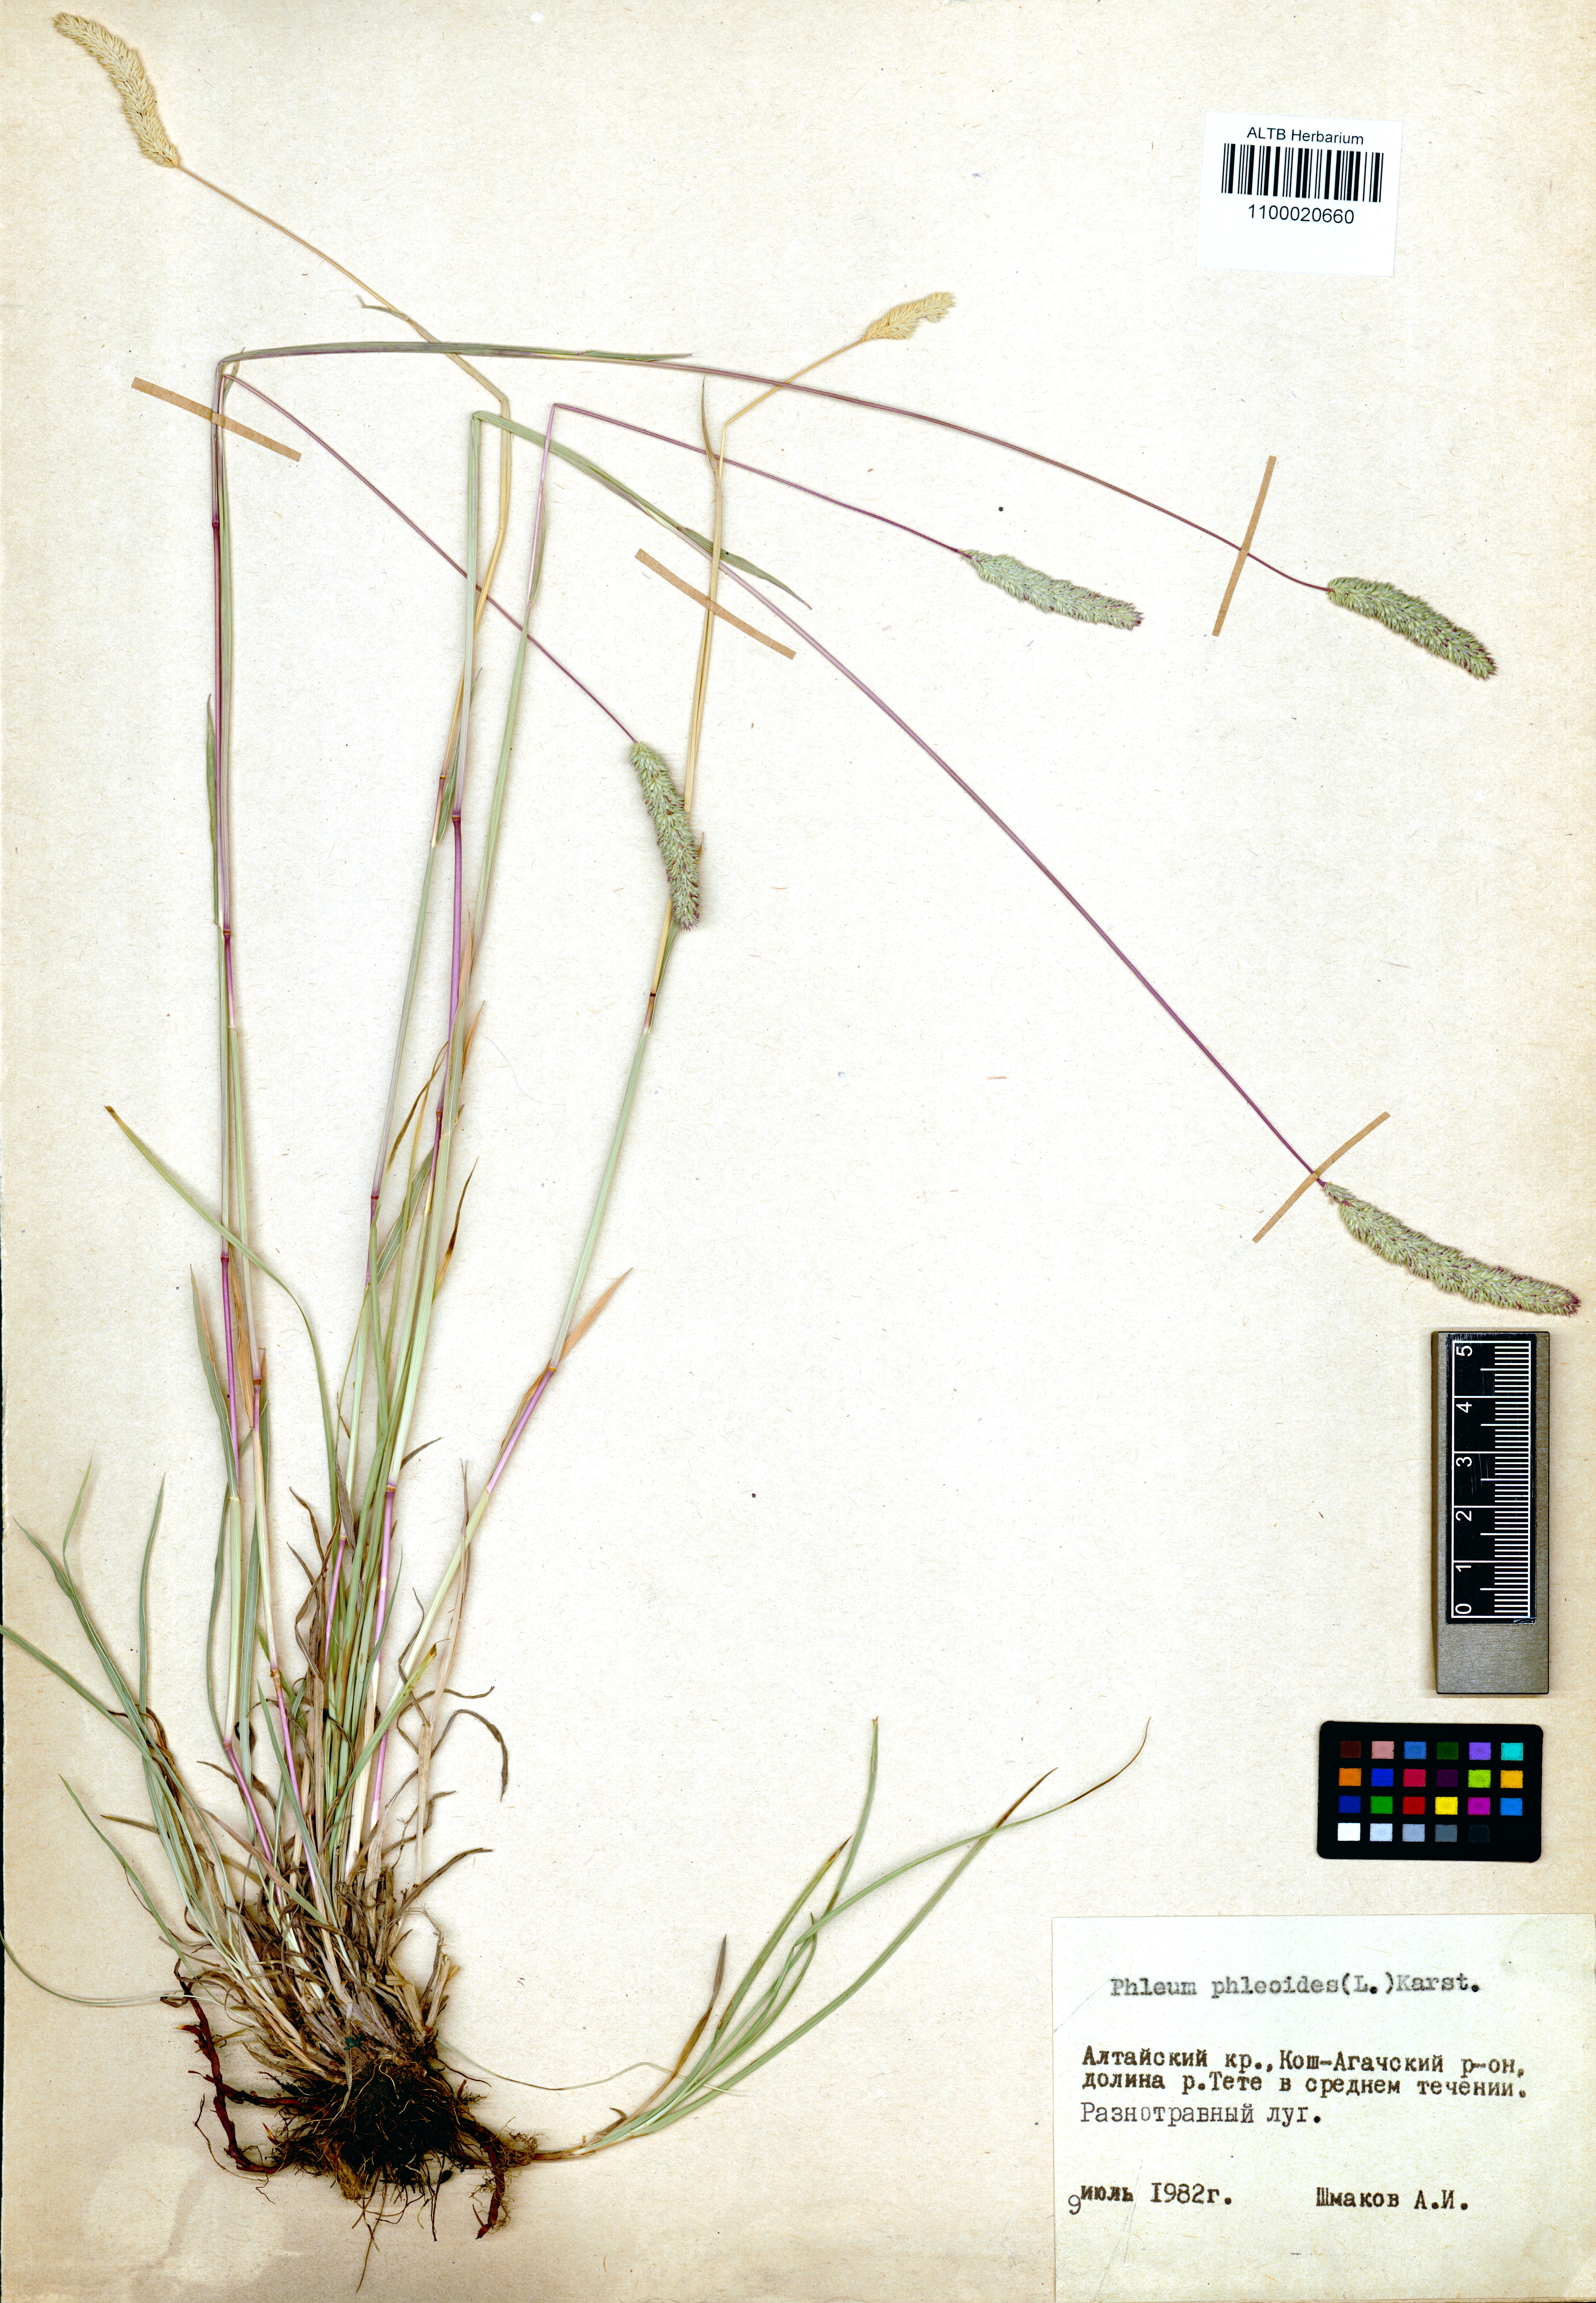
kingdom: Plantae
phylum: Tracheophyta
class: Liliopsida
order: Poales
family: Poaceae
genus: Phleum
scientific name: Phleum phleoides
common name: Purple-stem cat's-tail
